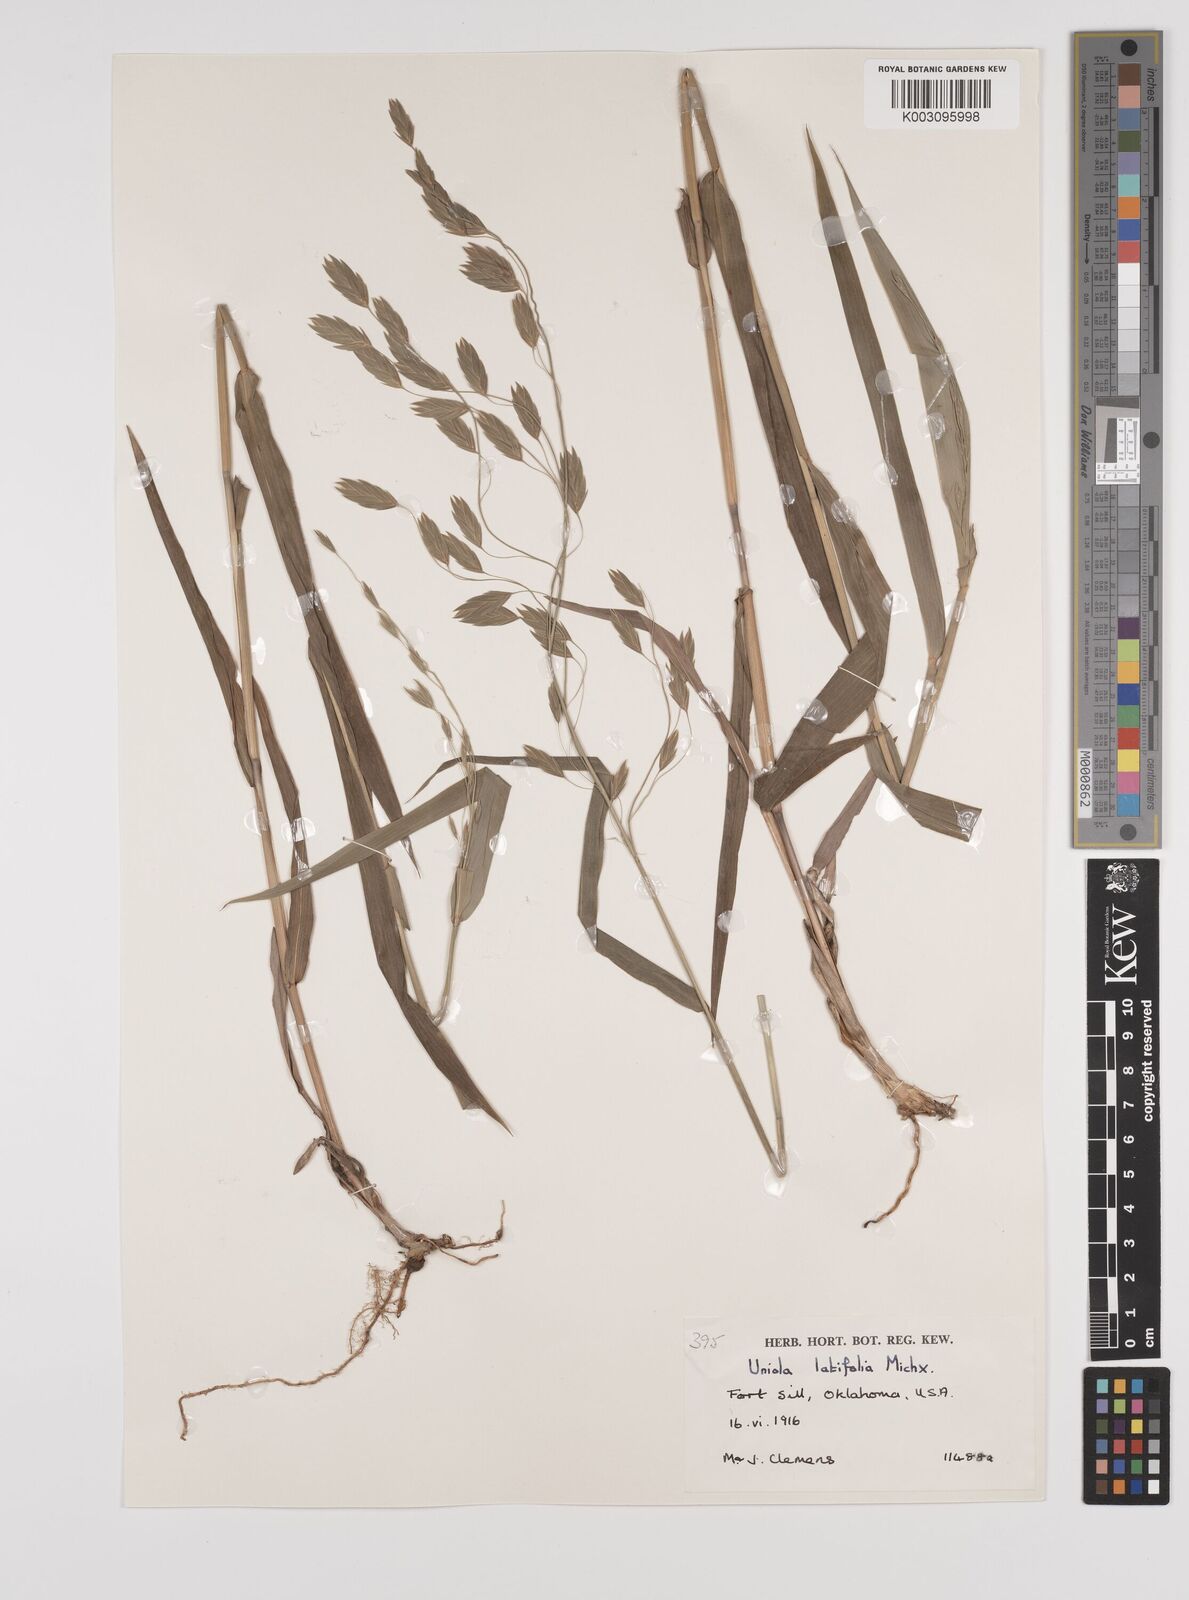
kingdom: Plantae
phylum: Tracheophyta
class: Liliopsida
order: Poales
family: Poaceae
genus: Chasmanthium
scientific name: Chasmanthium latifolium
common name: Broad-leaved chasmanthium
